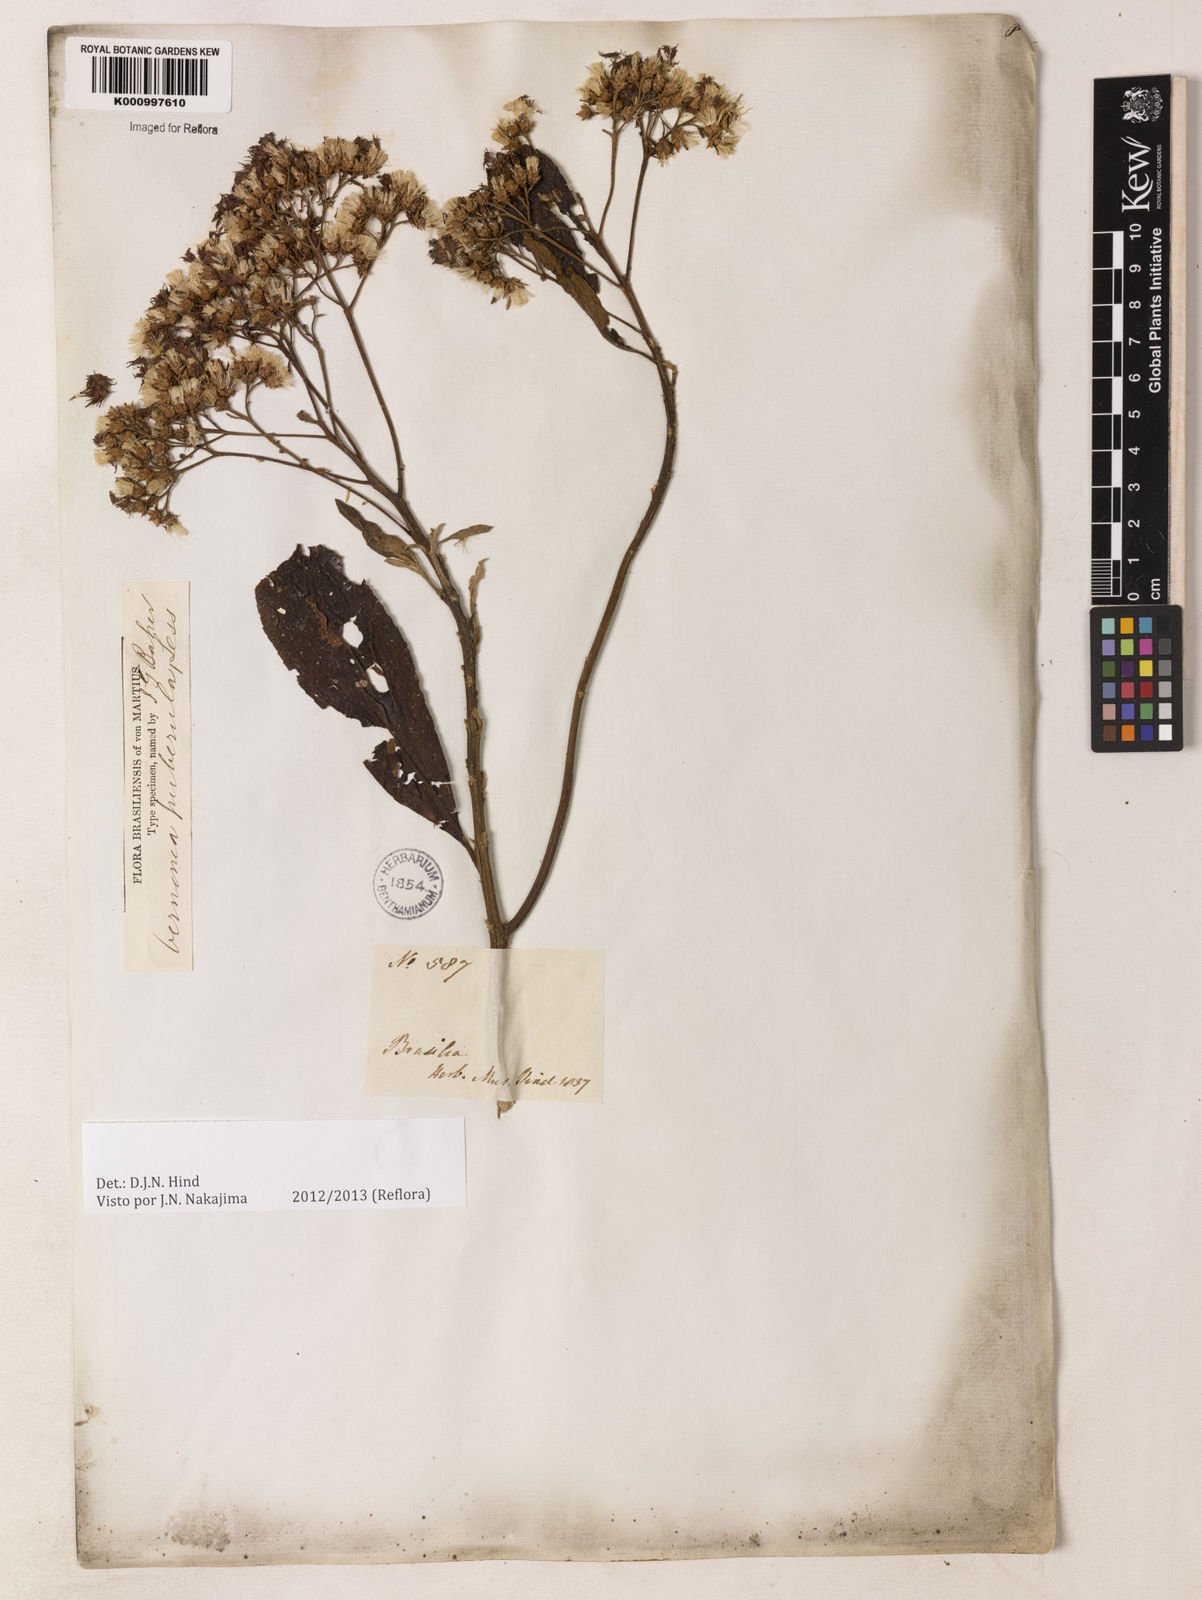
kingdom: Plantae
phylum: Tracheophyta
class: Magnoliopsida
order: Asterales
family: Asteraceae
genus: Vernonanthura
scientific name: Vernonanthura puberula
